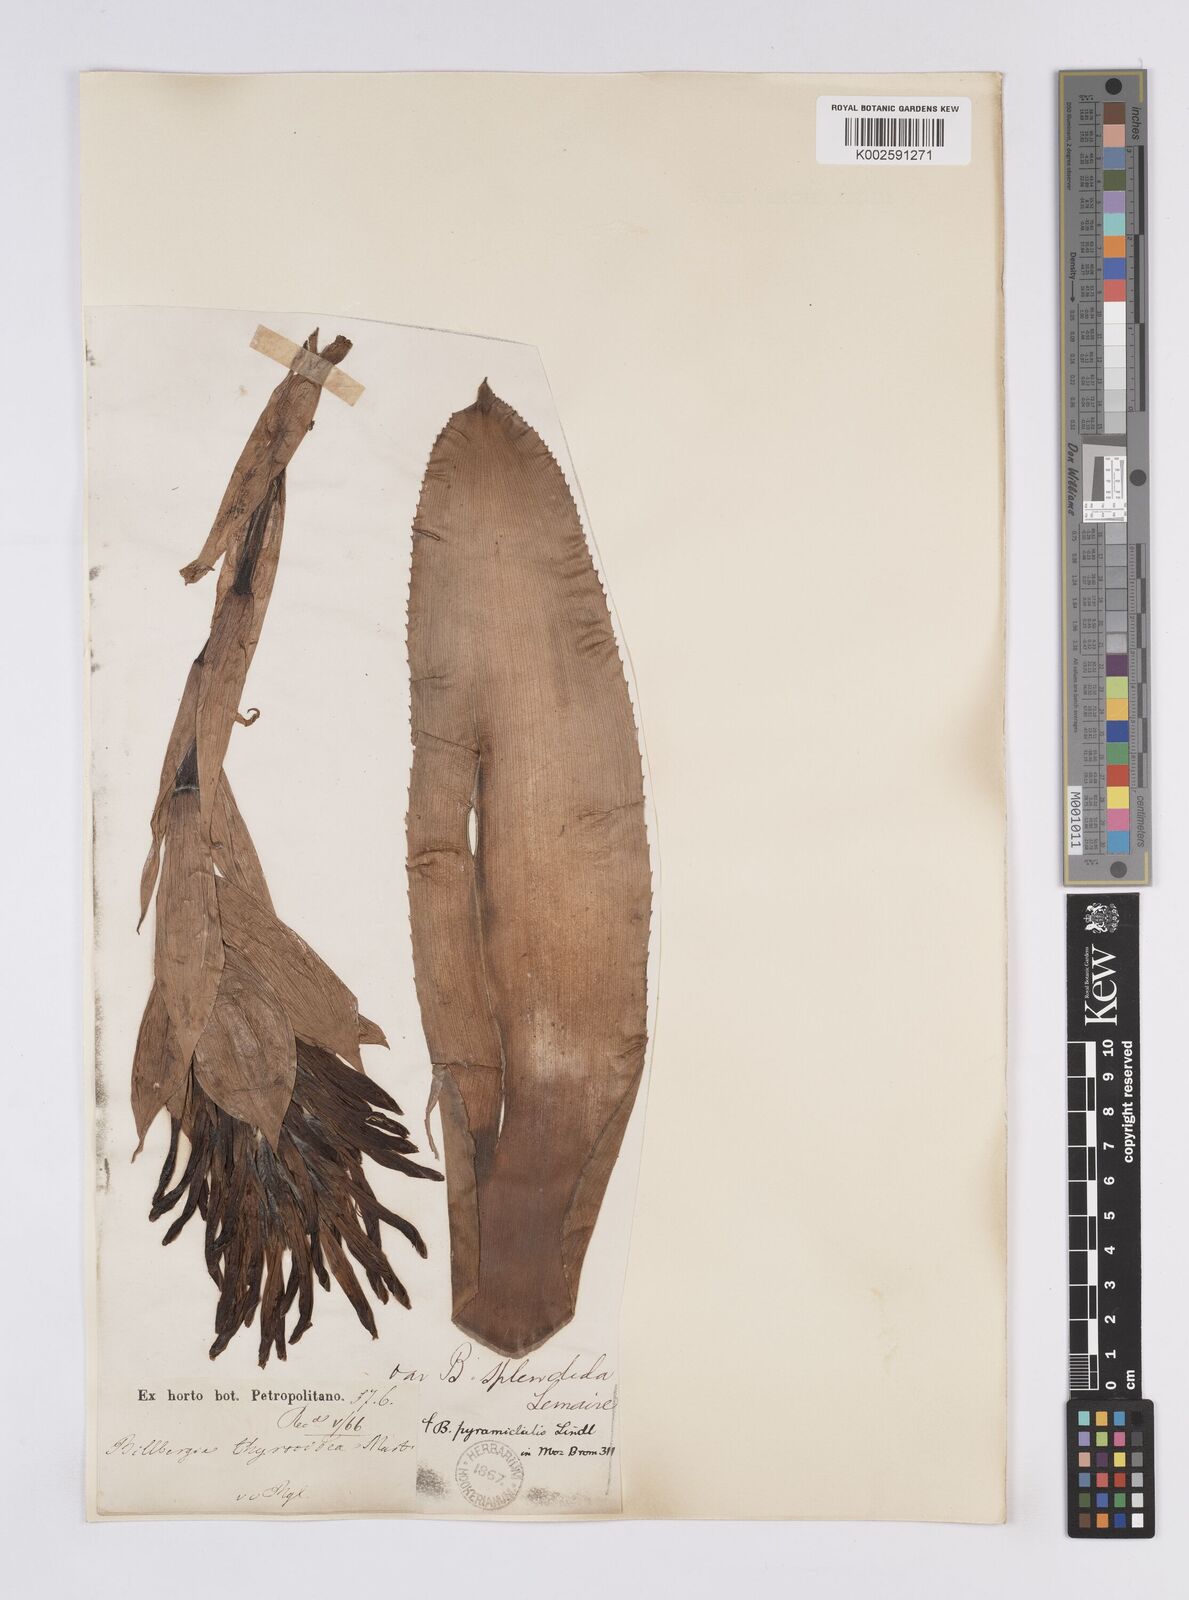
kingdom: Plantae
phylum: Tracheophyta
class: Liliopsida
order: Poales
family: Bromeliaceae
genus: Billbergia
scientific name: Billbergia pyramidalis
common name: Foolproofplant
